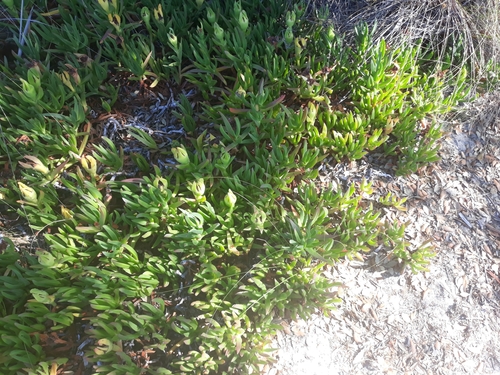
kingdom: Plantae
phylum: Tracheophyta
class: Magnoliopsida
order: Caryophyllales
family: Aizoaceae
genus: Carpobrotus
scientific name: Carpobrotus edulis
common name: Hottentot-fig
